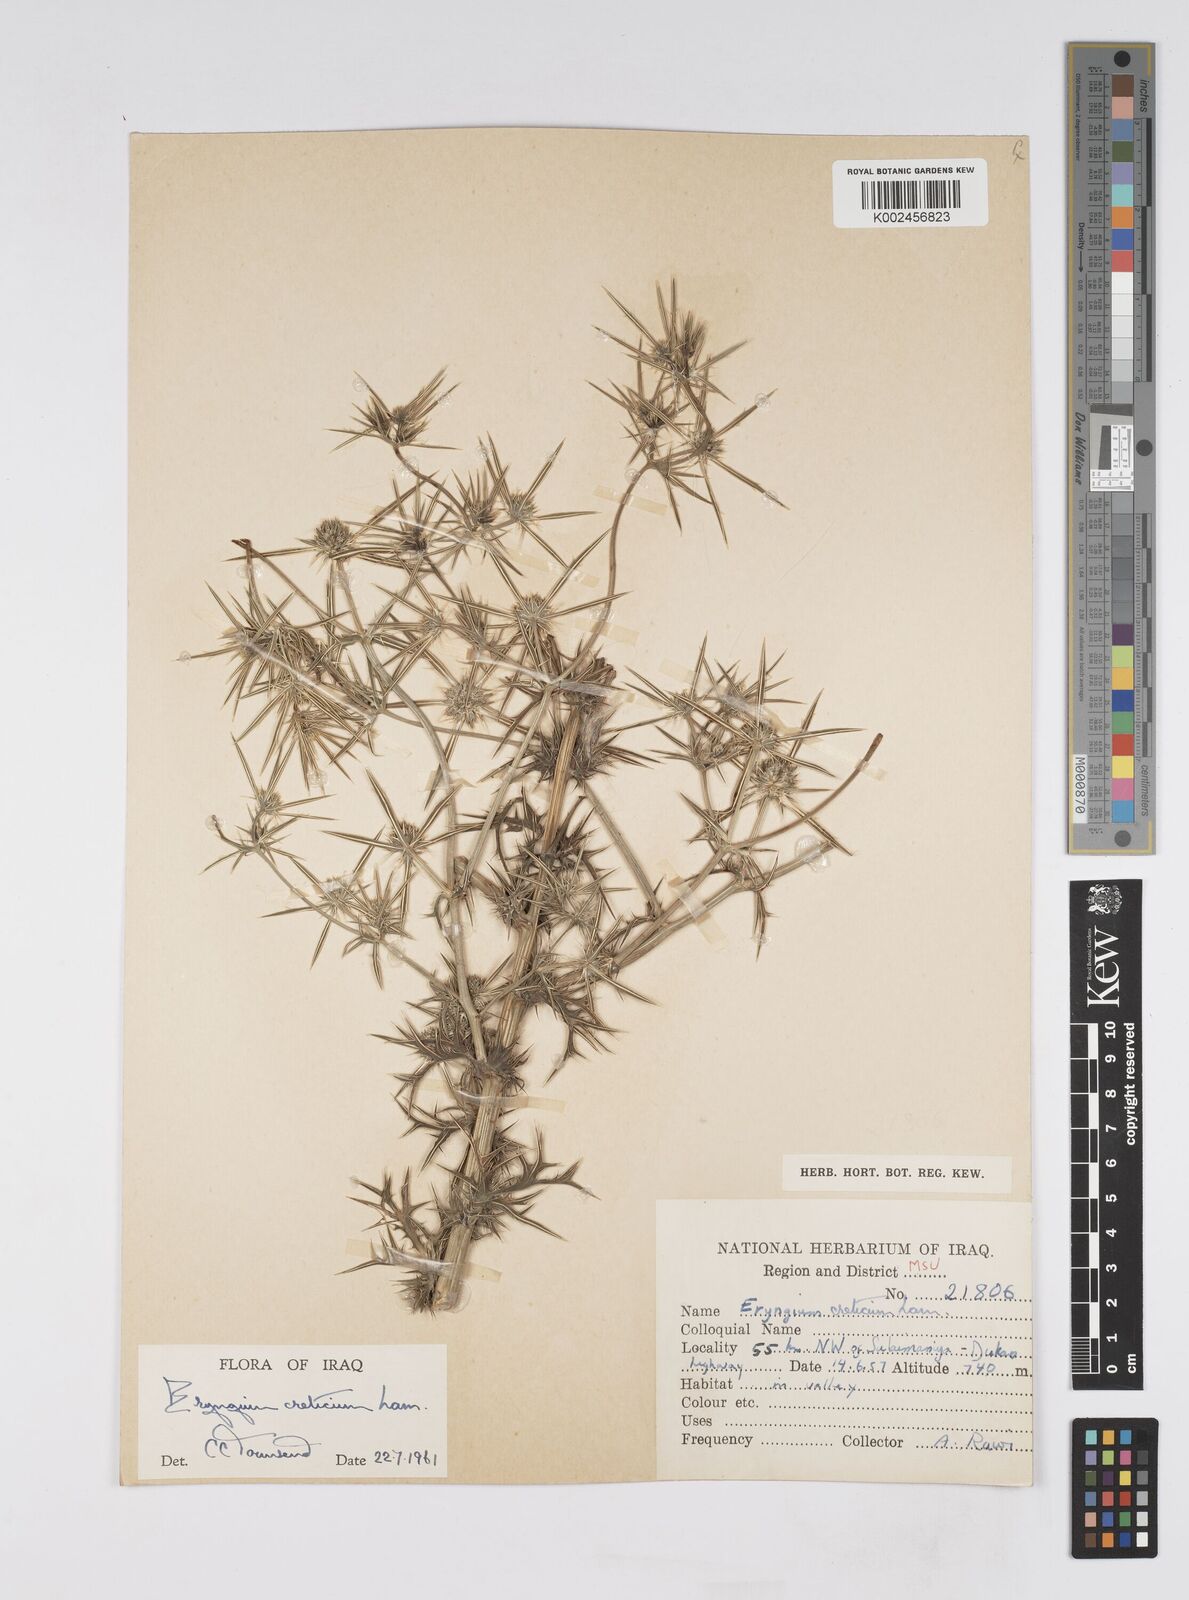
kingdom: Plantae
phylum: Tracheophyta
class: Magnoliopsida
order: Apiales
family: Apiaceae
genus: Eryngium
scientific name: Eryngium creticum
